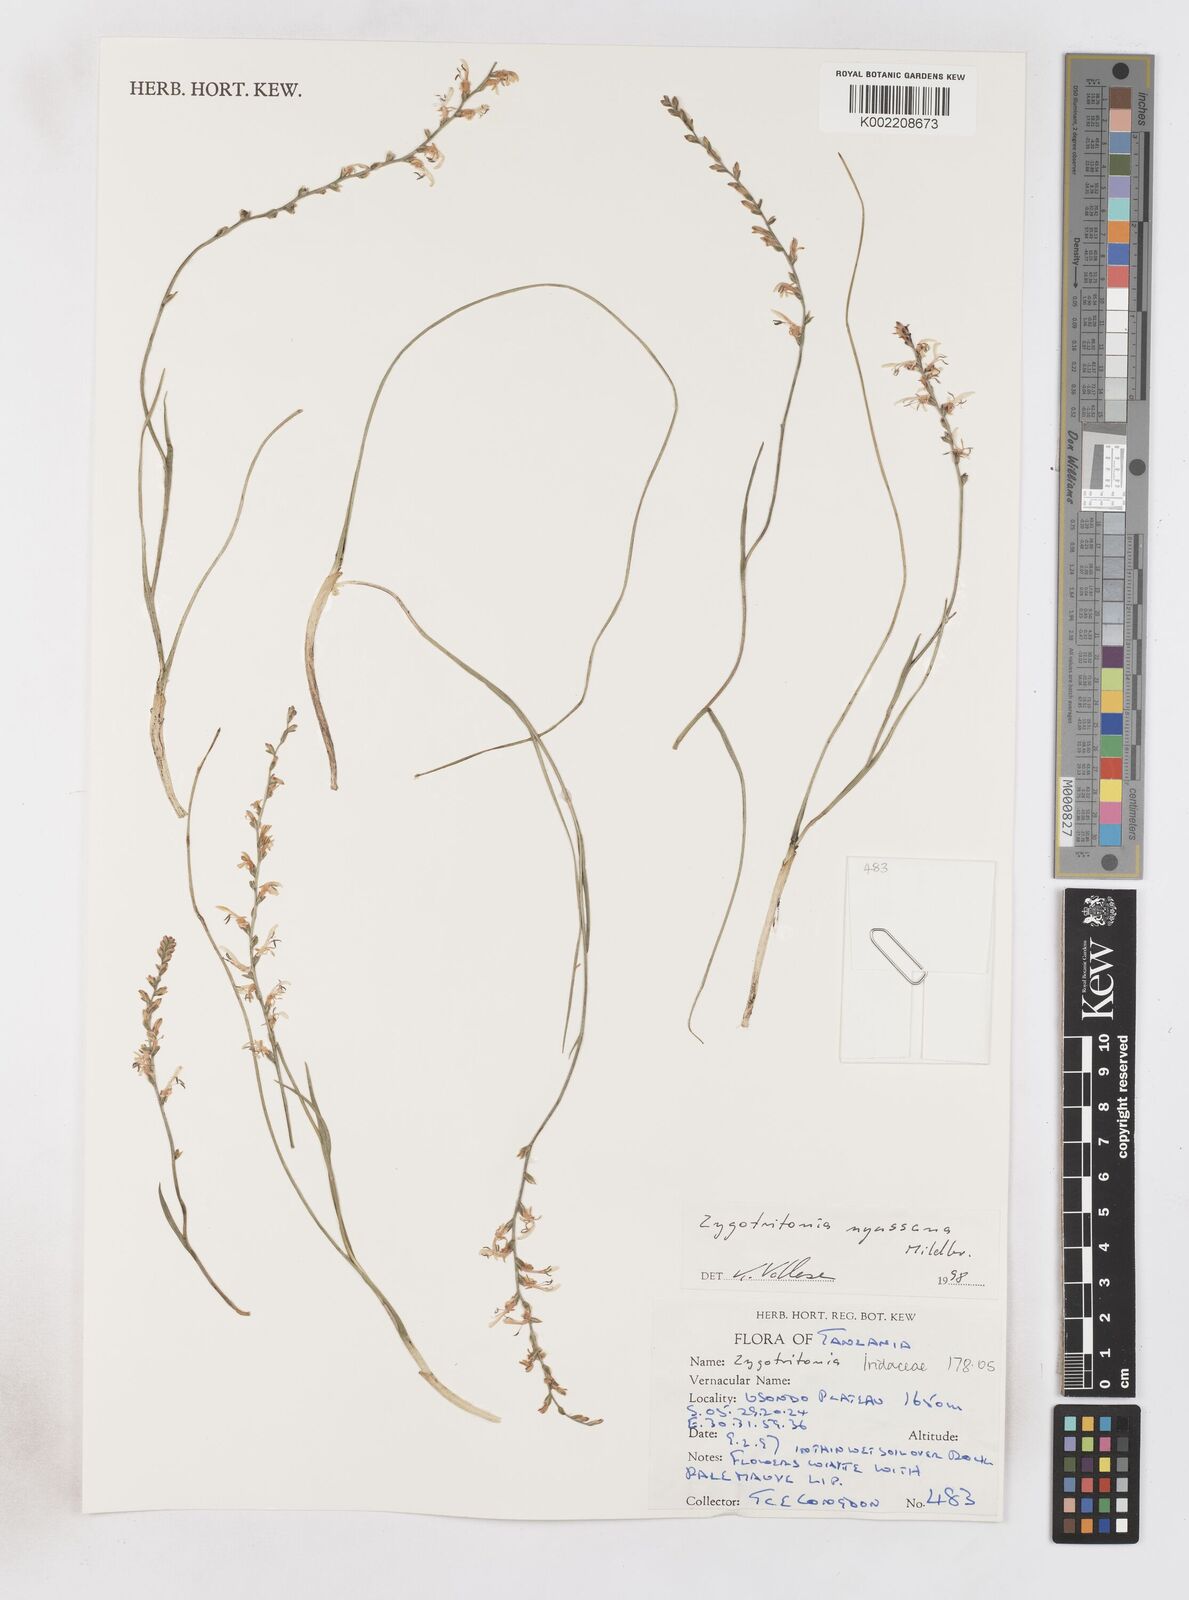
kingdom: Plantae
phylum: Tracheophyta
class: Liliopsida
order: Asparagales
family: Iridaceae
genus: Zygotritonia
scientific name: Zygotritonia
